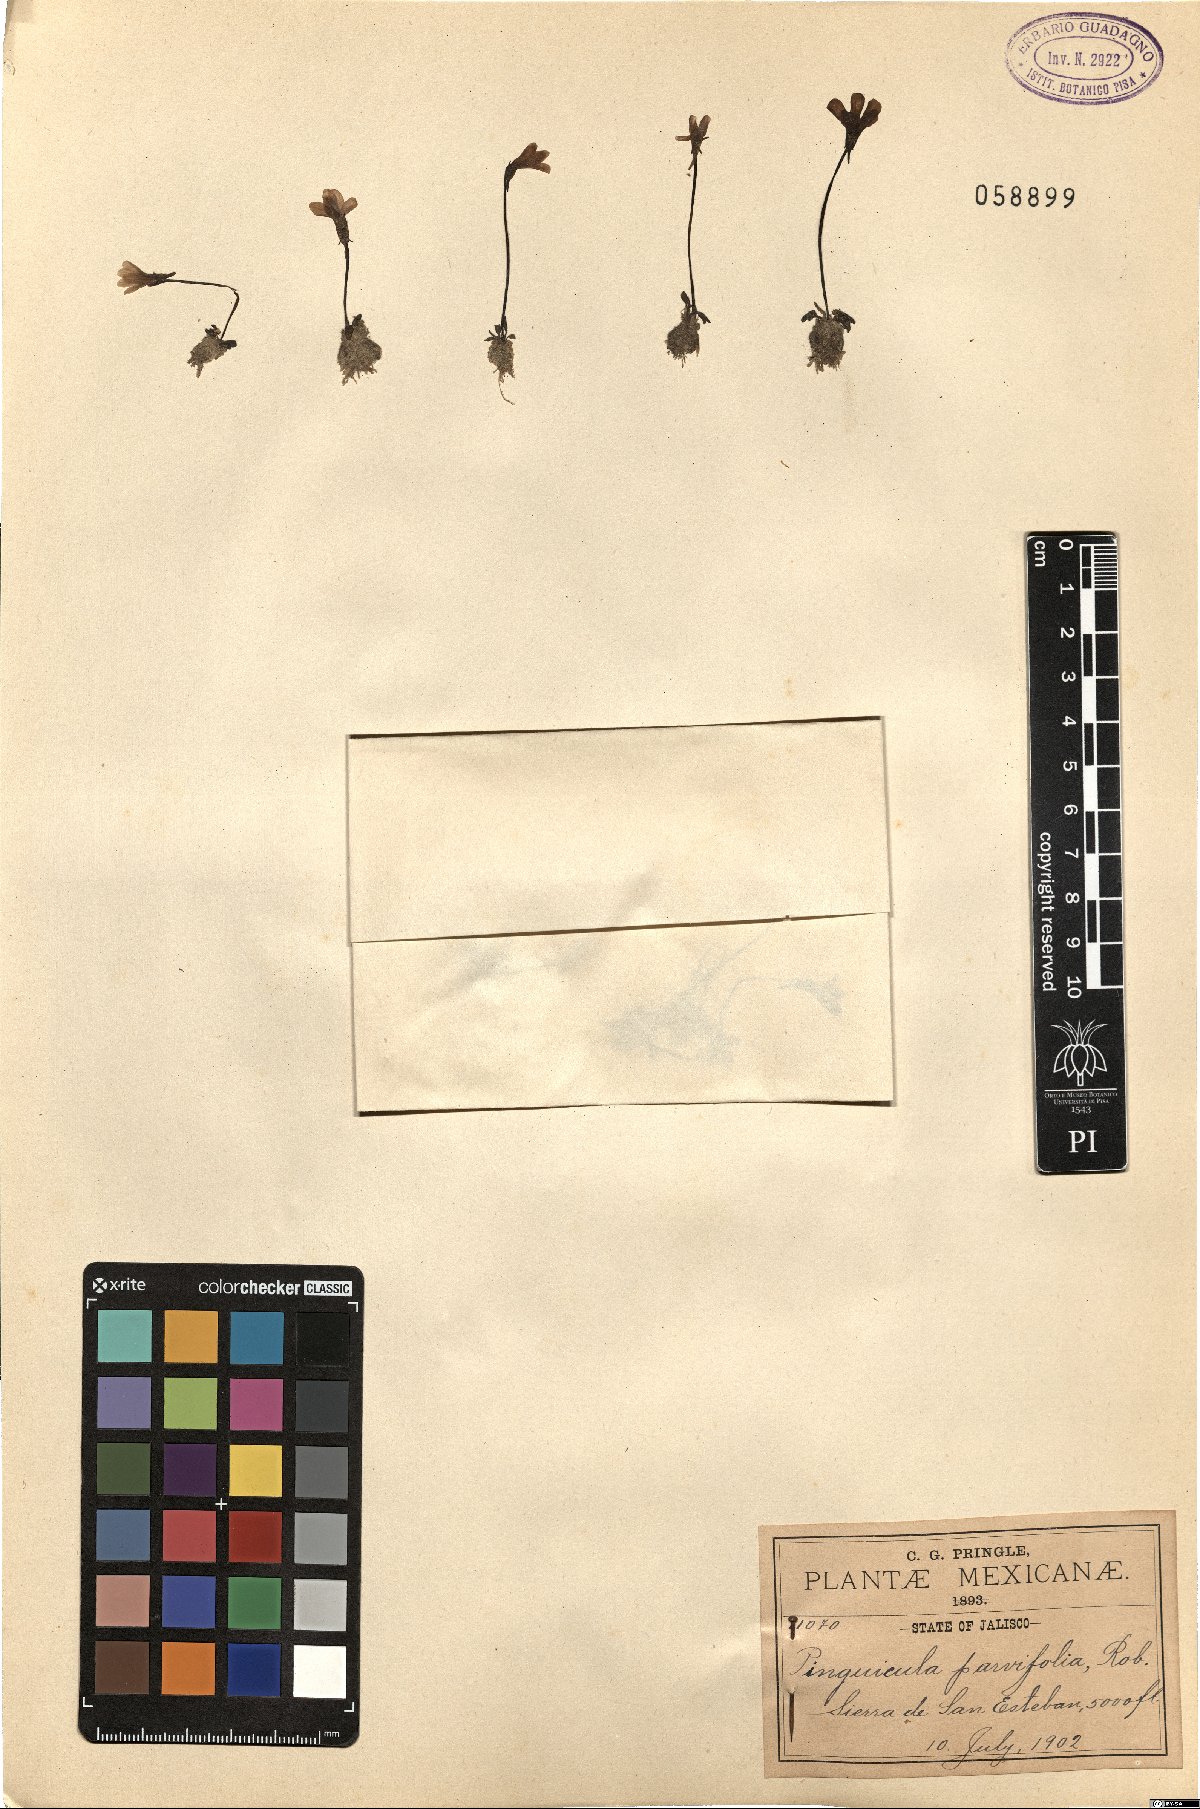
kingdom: Plantae
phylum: Tracheophyta
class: Magnoliopsida
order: Lamiales
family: Lentibulariaceae
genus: Pinguicula
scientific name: Pinguicula parvifolia
